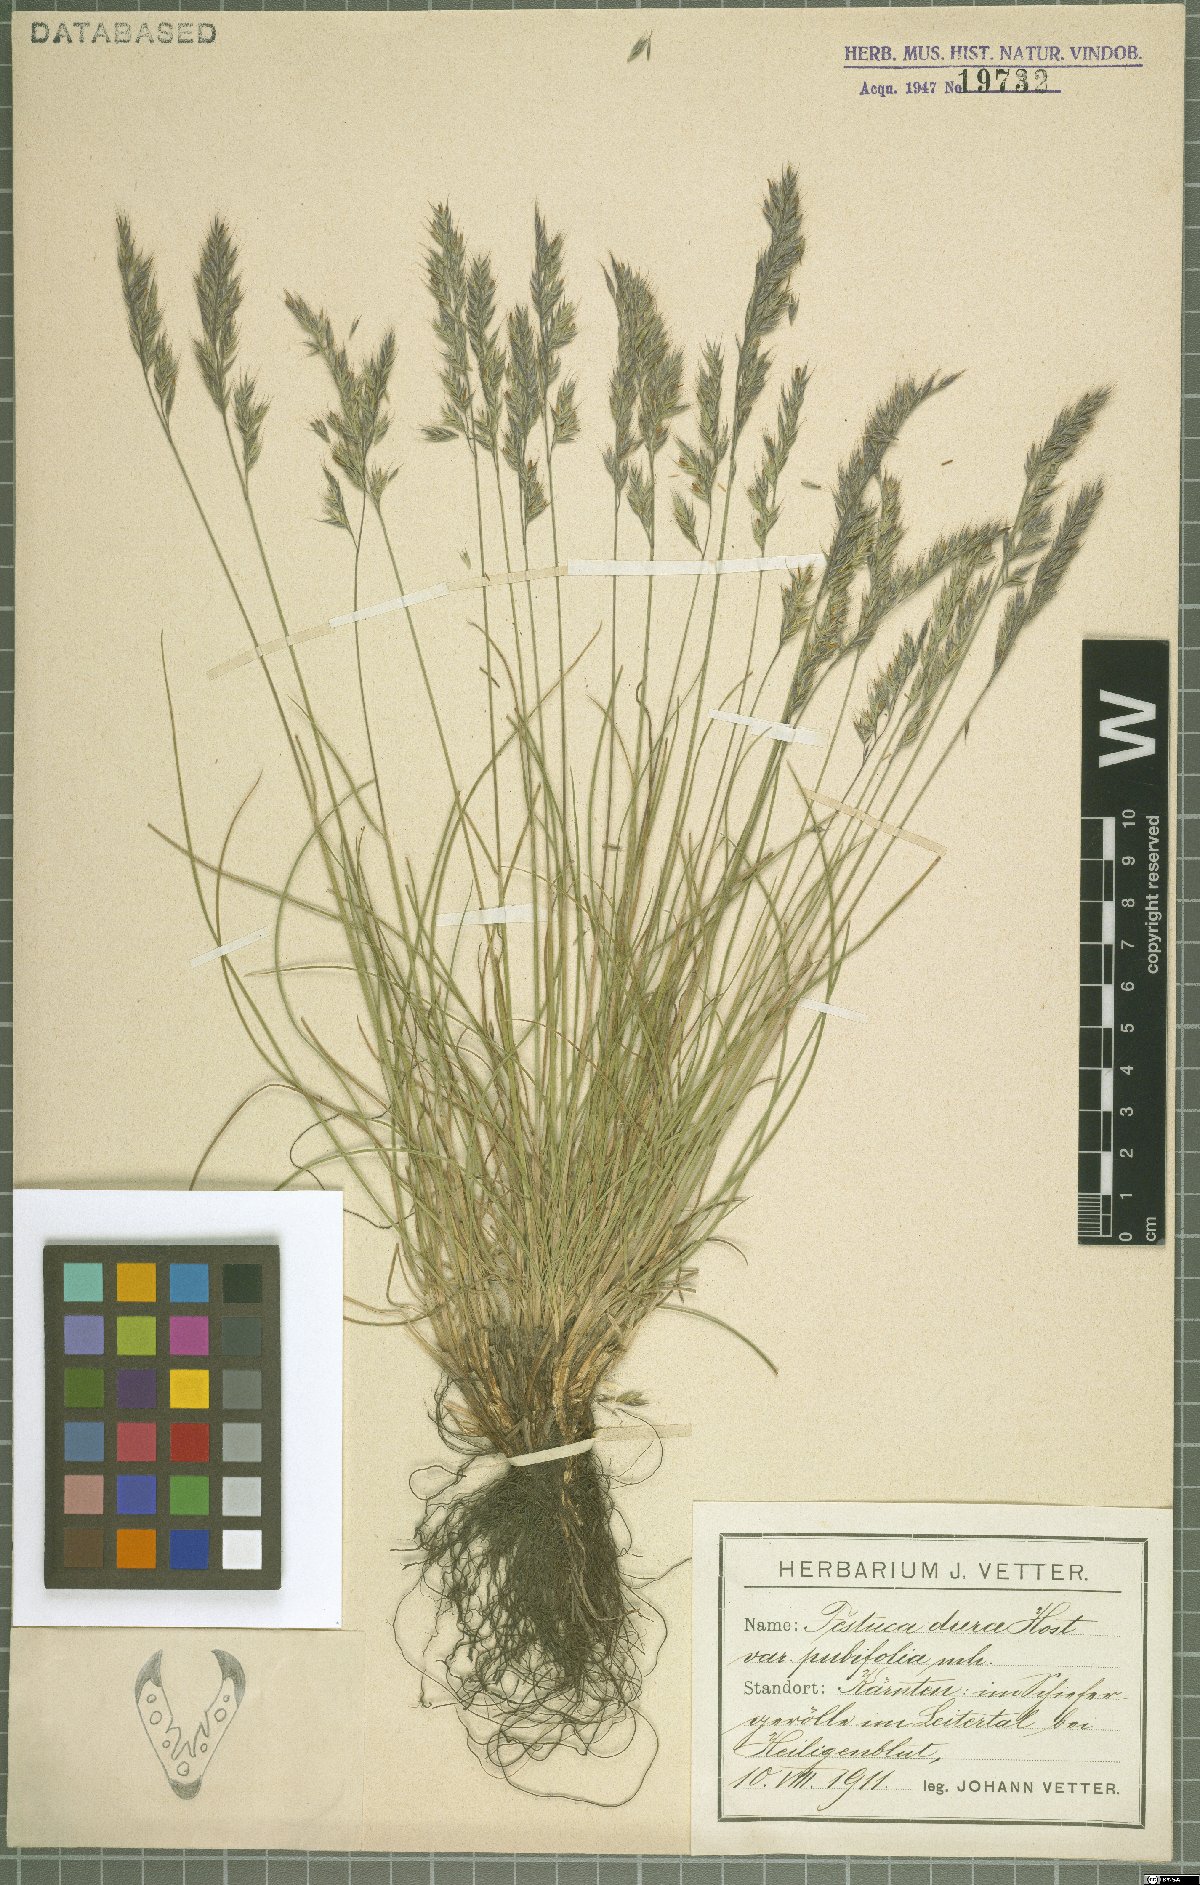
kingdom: Plantae
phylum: Tracheophyta
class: Liliopsida
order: Poales
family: Poaceae
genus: Festuca
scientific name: Festuca pseudodura
